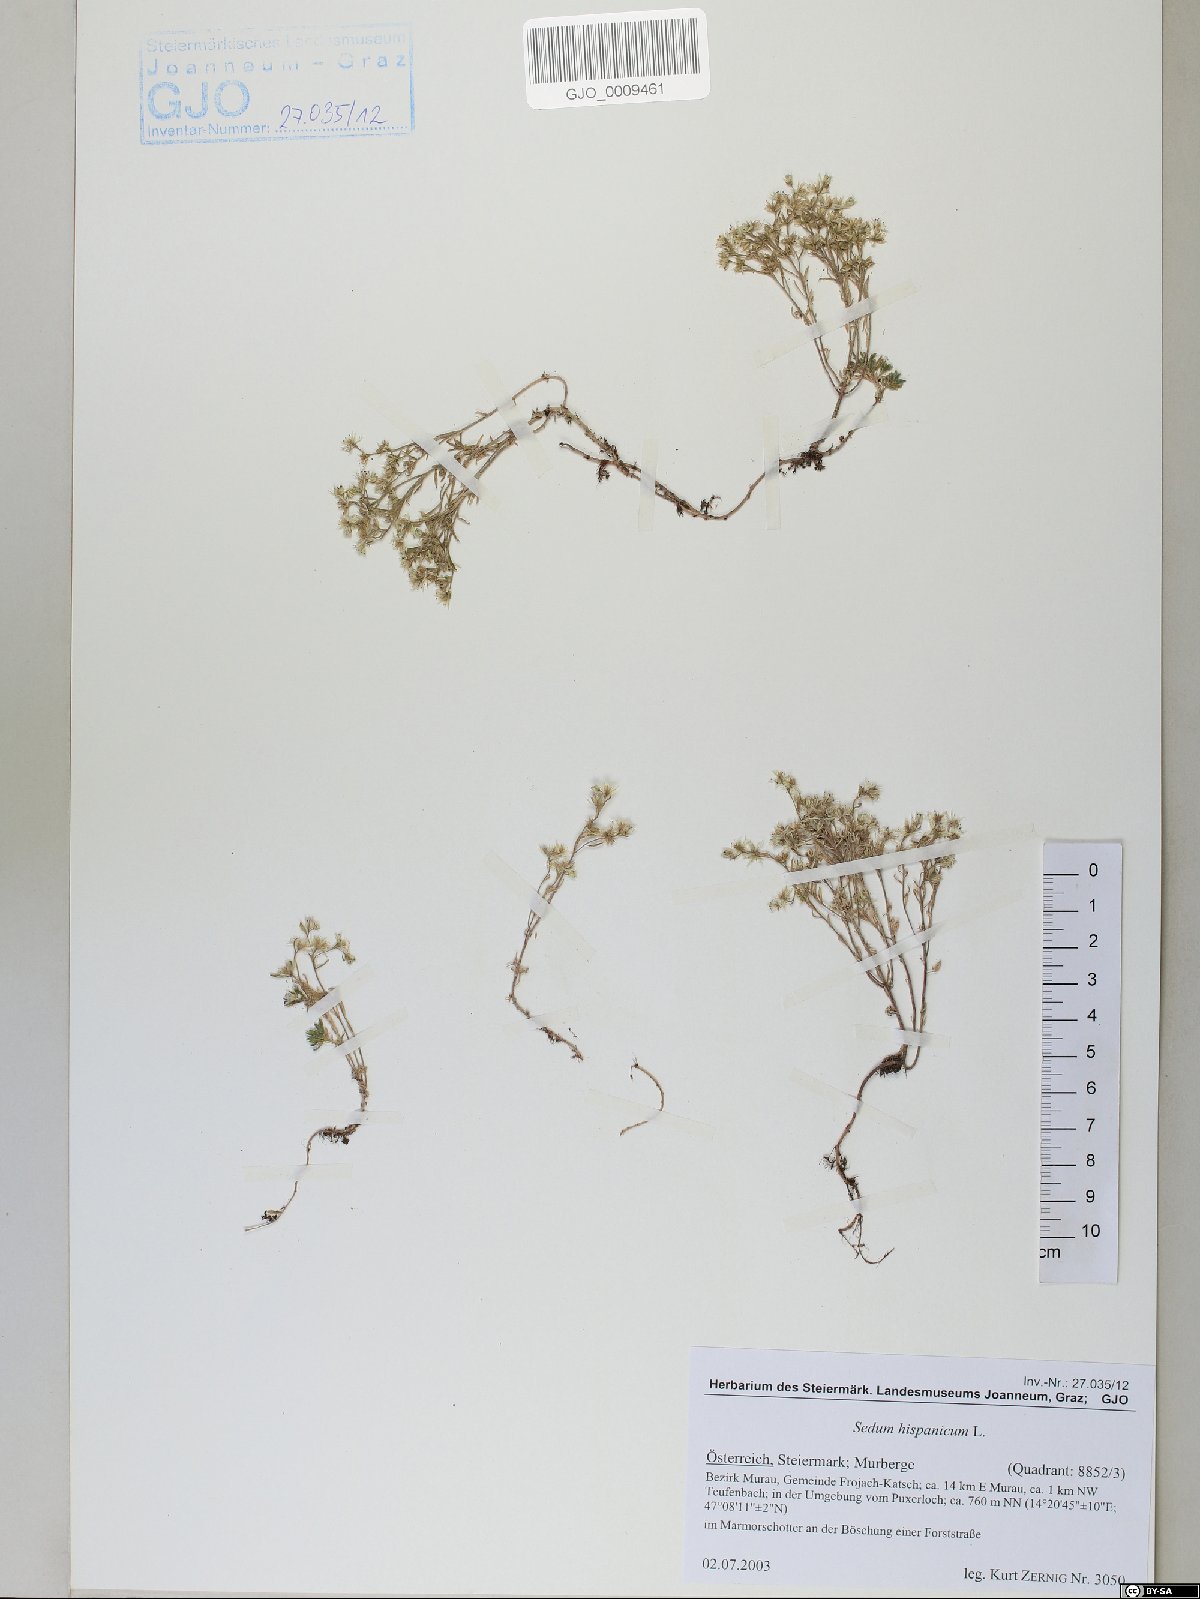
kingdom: Plantae
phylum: Tracheophyta
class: Magnoliopsida
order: Saxifragales
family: Crassulaceae
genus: Sedum
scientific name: Sedum hispanicum
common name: Spanish stonecrop
